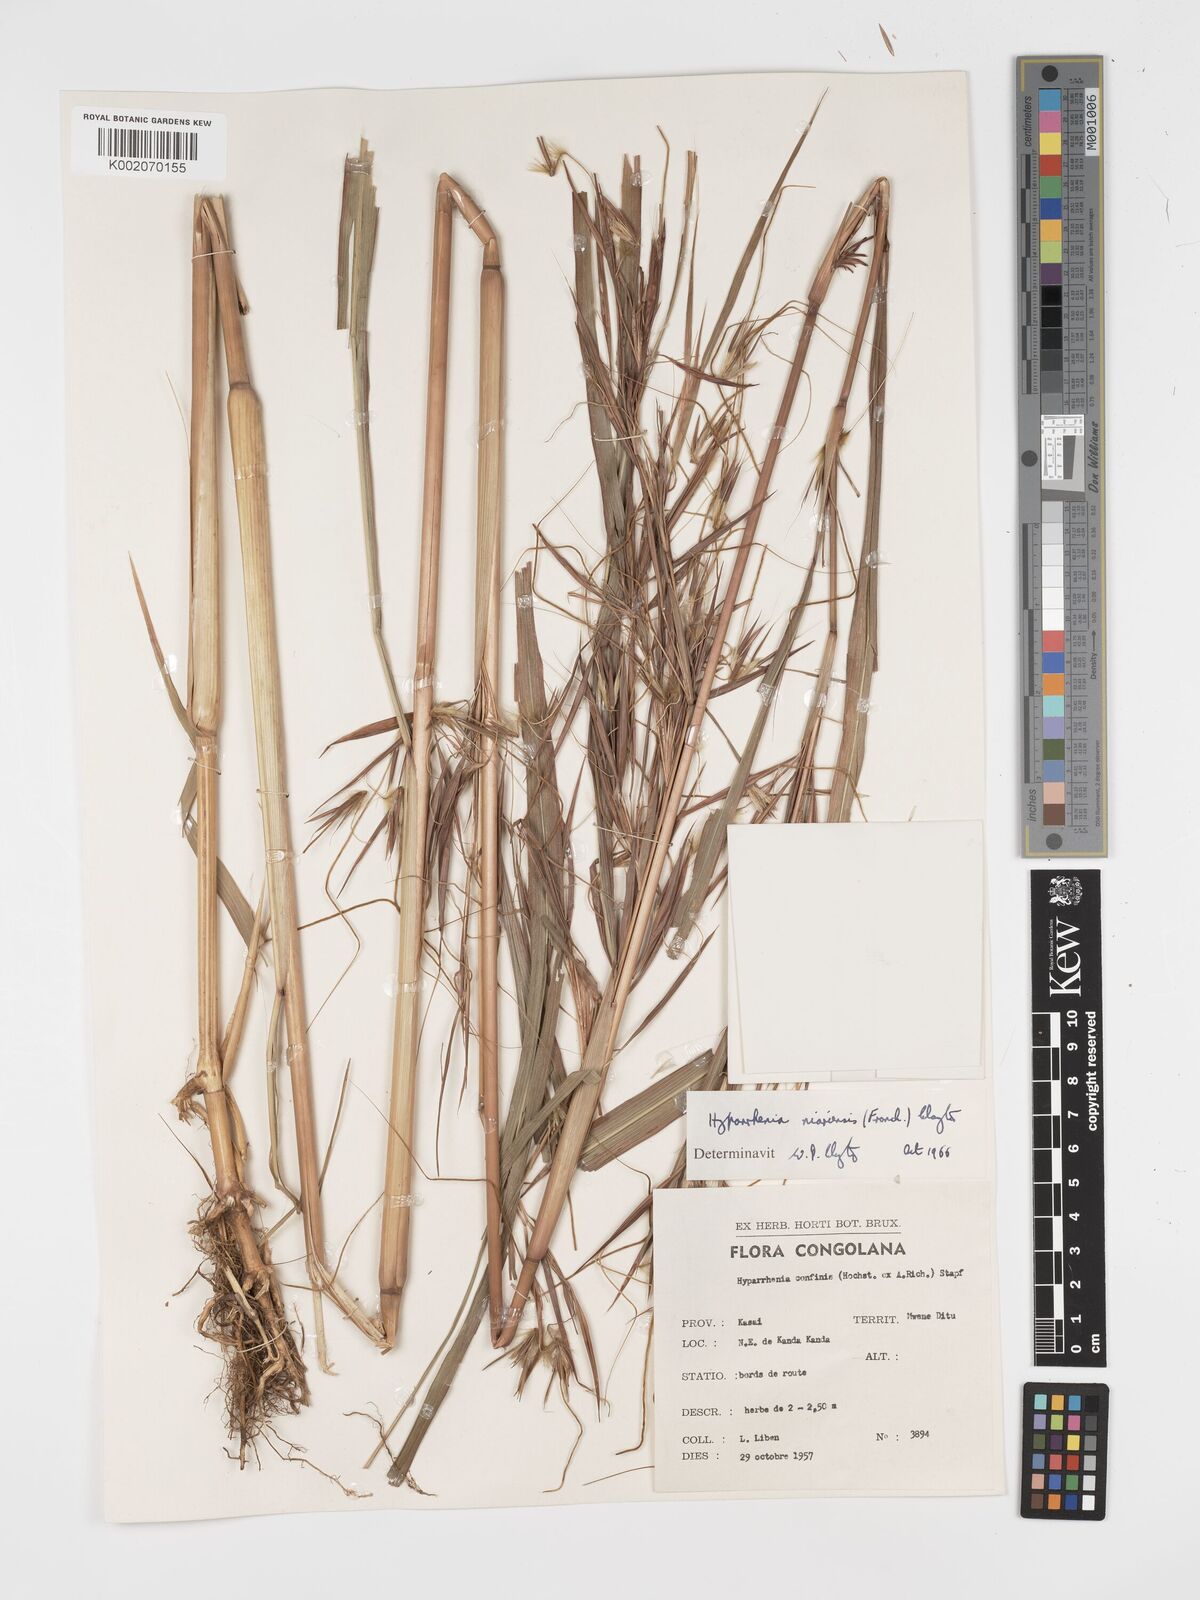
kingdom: Plantae
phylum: Tracheophyta
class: Liliopsida
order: Poales
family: Poaceae
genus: Hyparrhenia
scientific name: Hyparrhenia niariensis
